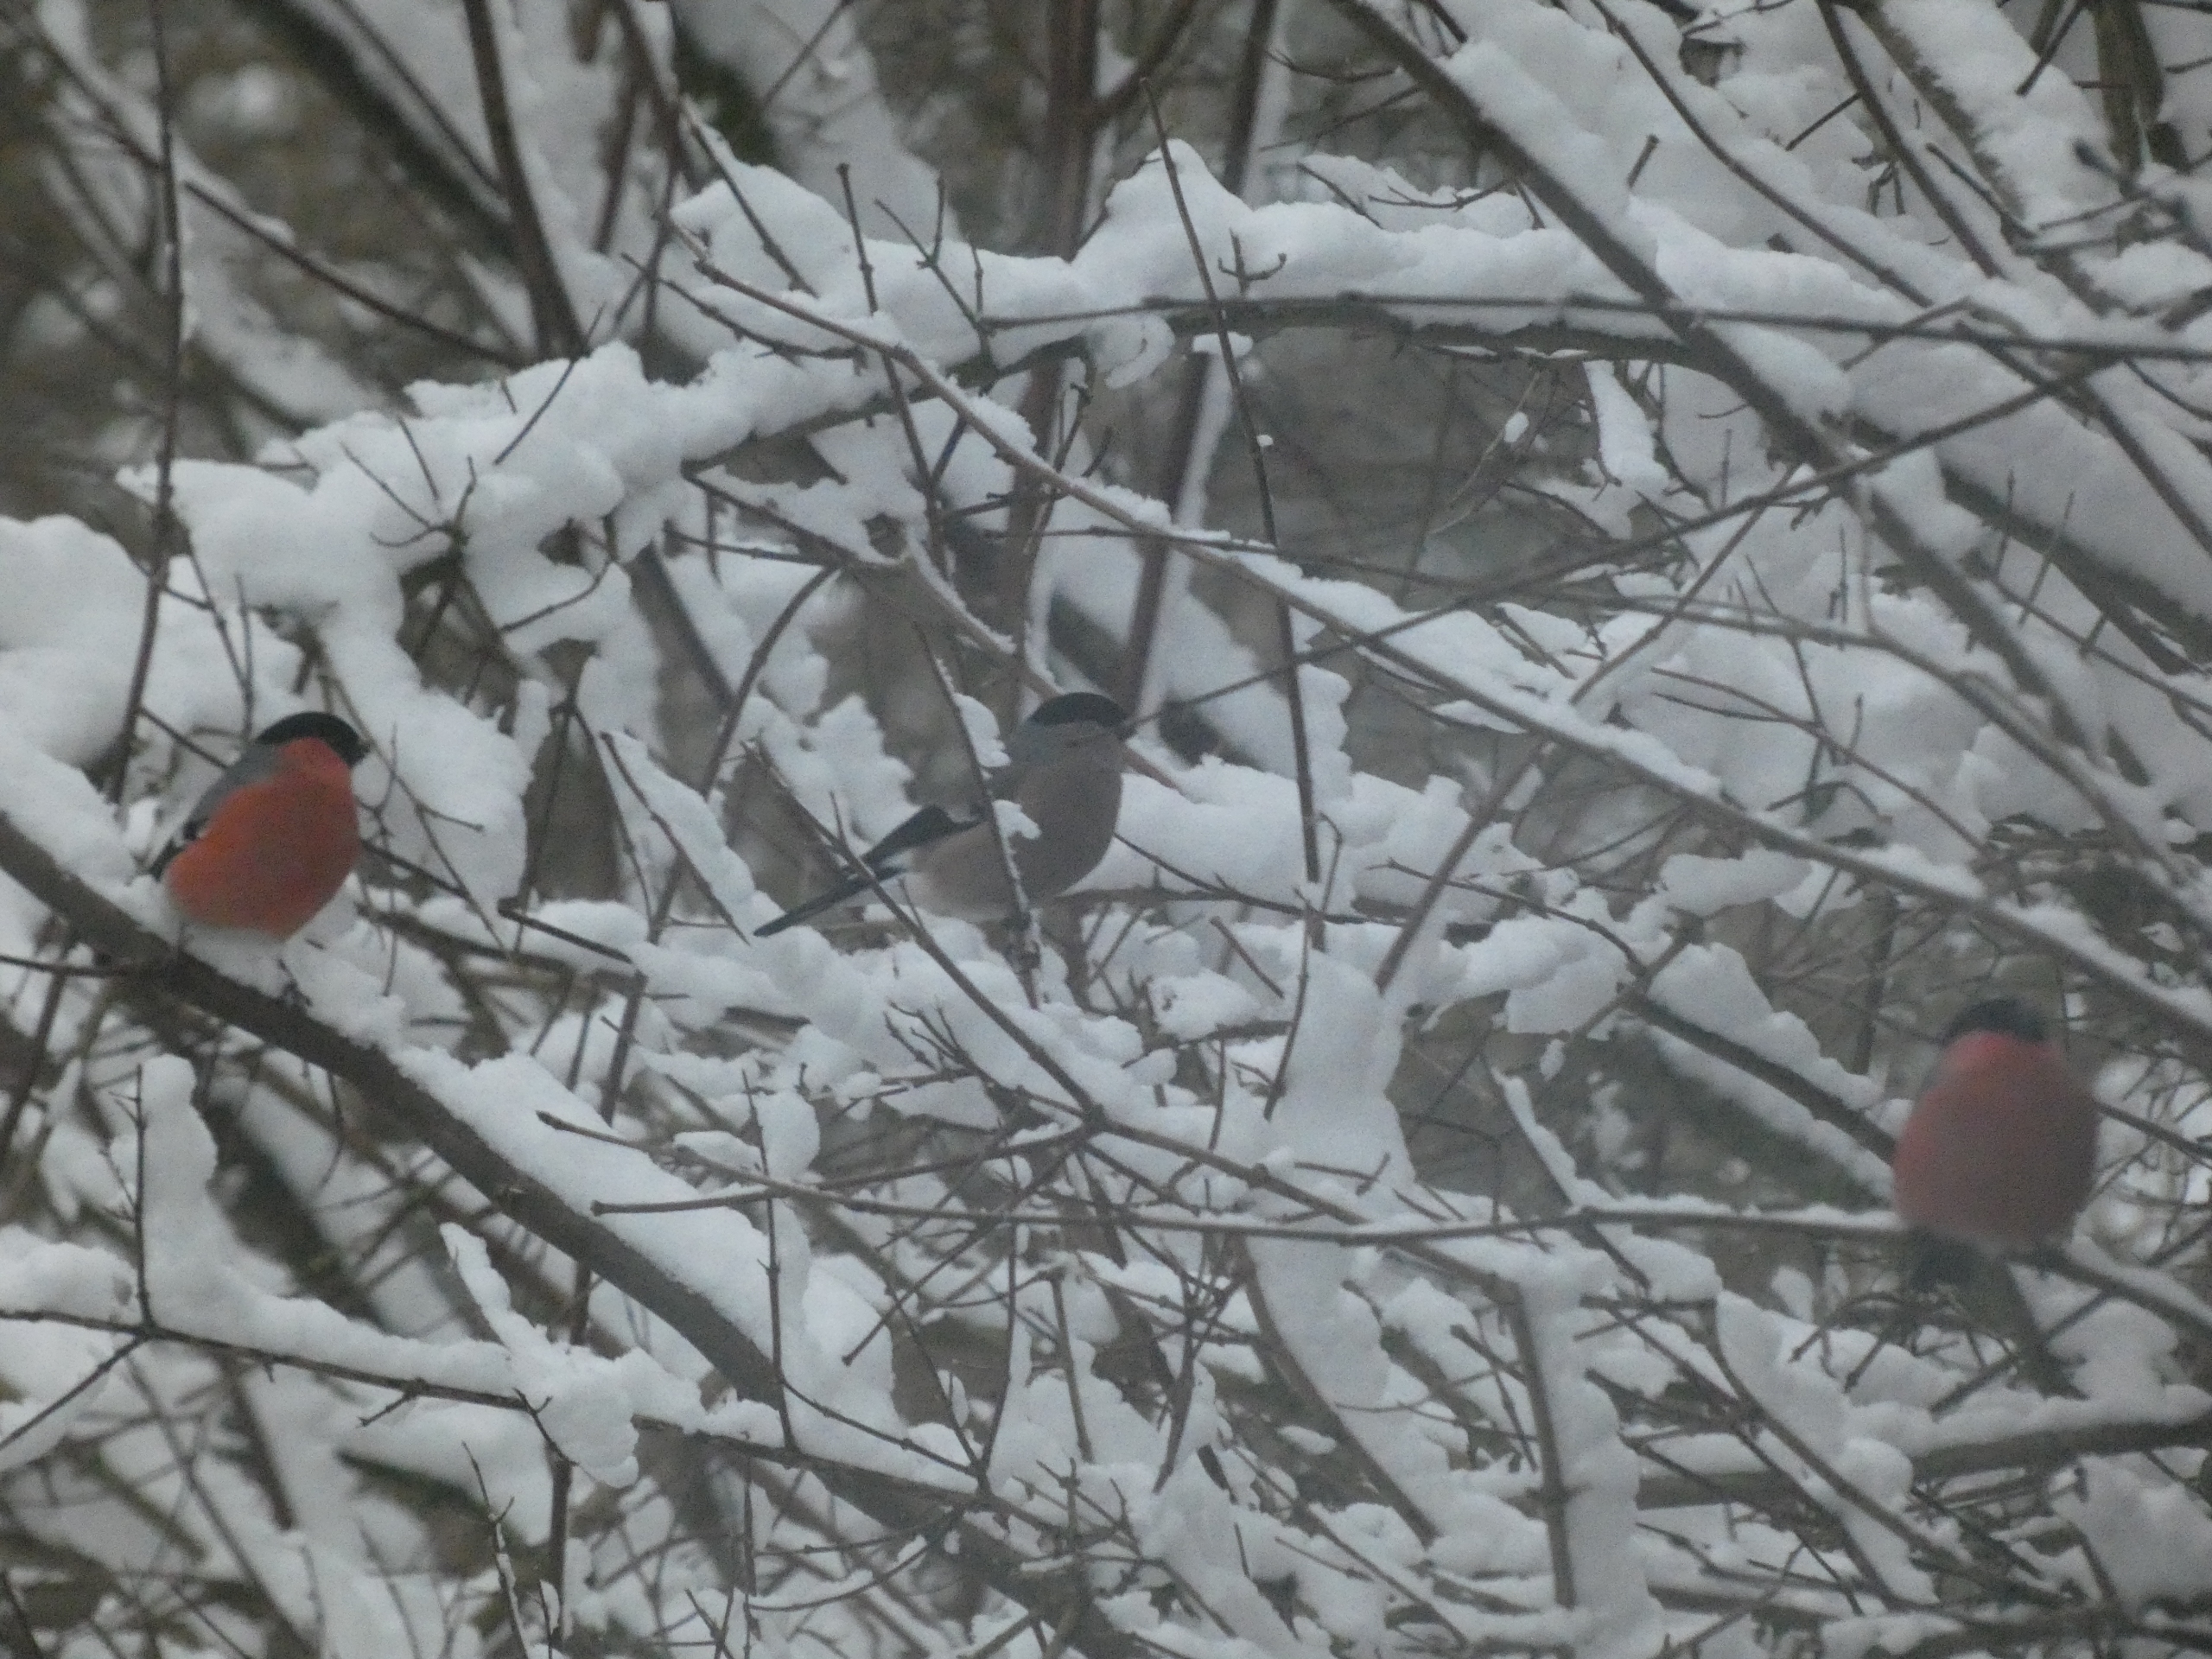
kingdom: Animalia
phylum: Chordata
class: Aves
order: Passeriformes
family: Fringillidae
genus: Pyrrhula
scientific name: Pyrrhula pyrrhula
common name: Dompap
